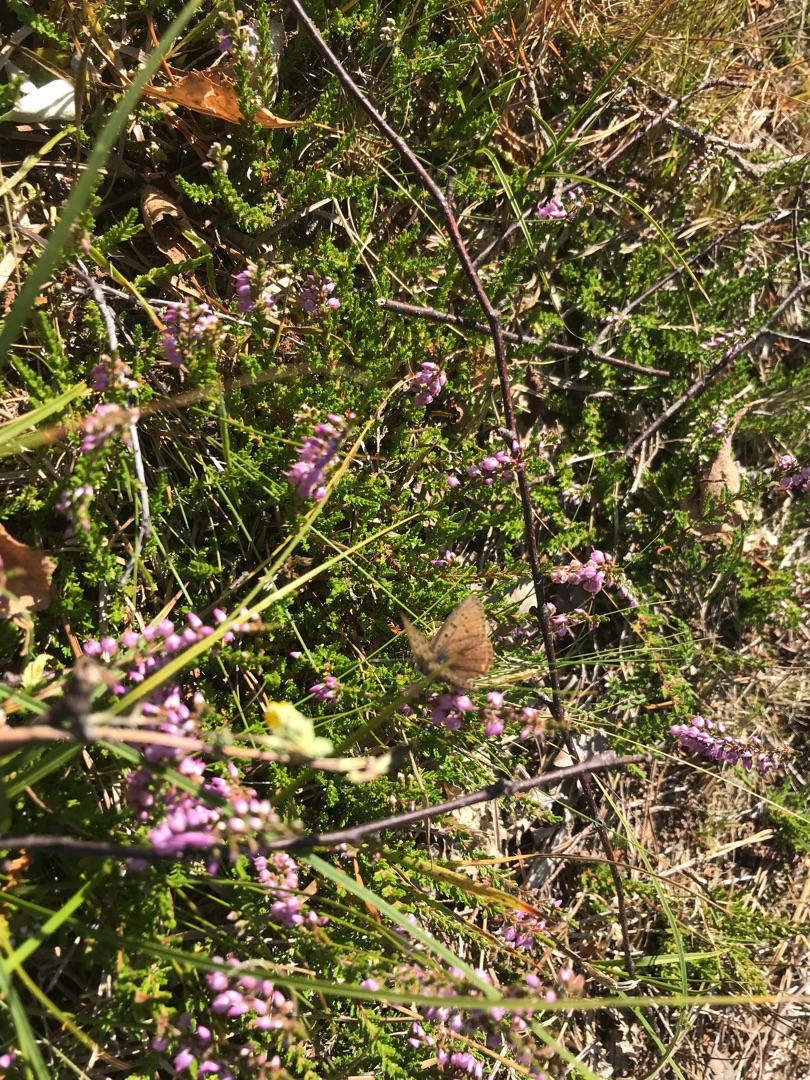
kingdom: Animalia
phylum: Arthropoda
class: Insecta
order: Lepidoptera
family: Lycaenidae
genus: Loweia
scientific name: Loweia tityrus
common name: Sort ildfugl
